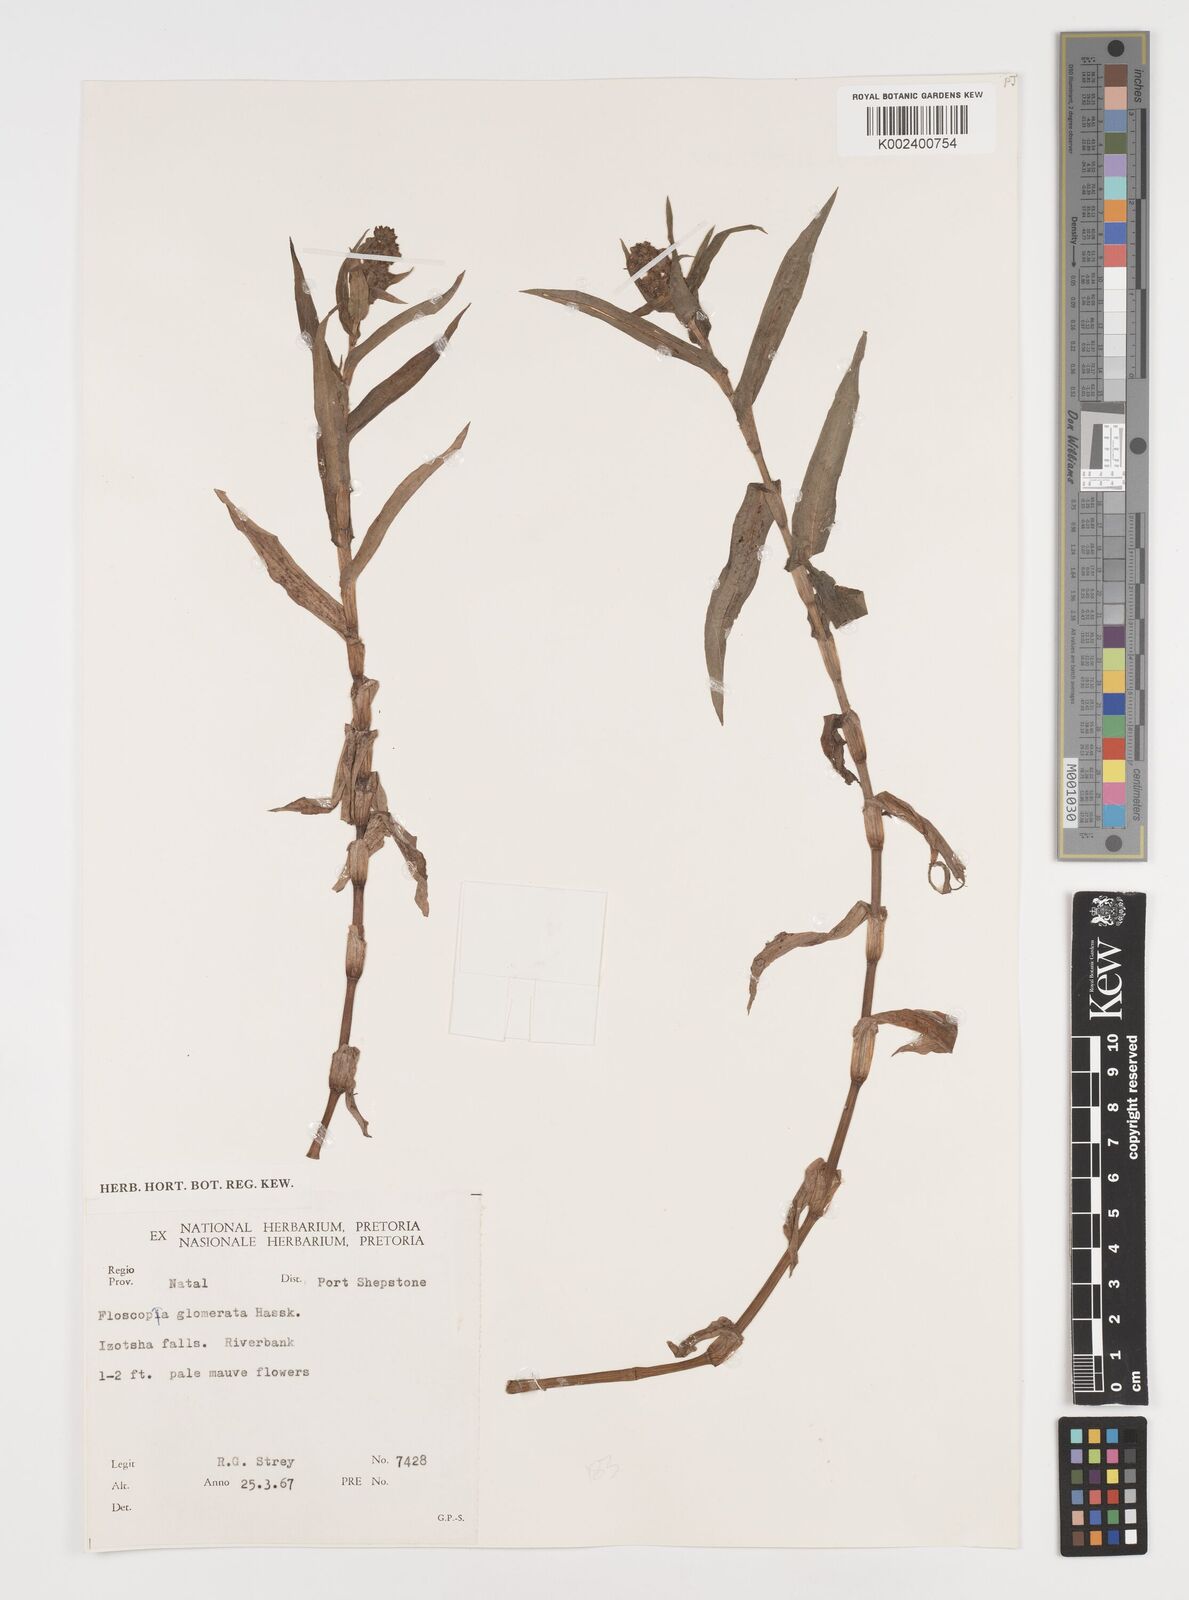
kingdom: Plantae
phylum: Tracheophyta
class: Liliopsida
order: Commelinales
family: Commelinaceae
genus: Floscopa
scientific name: Floscopa glomerata
